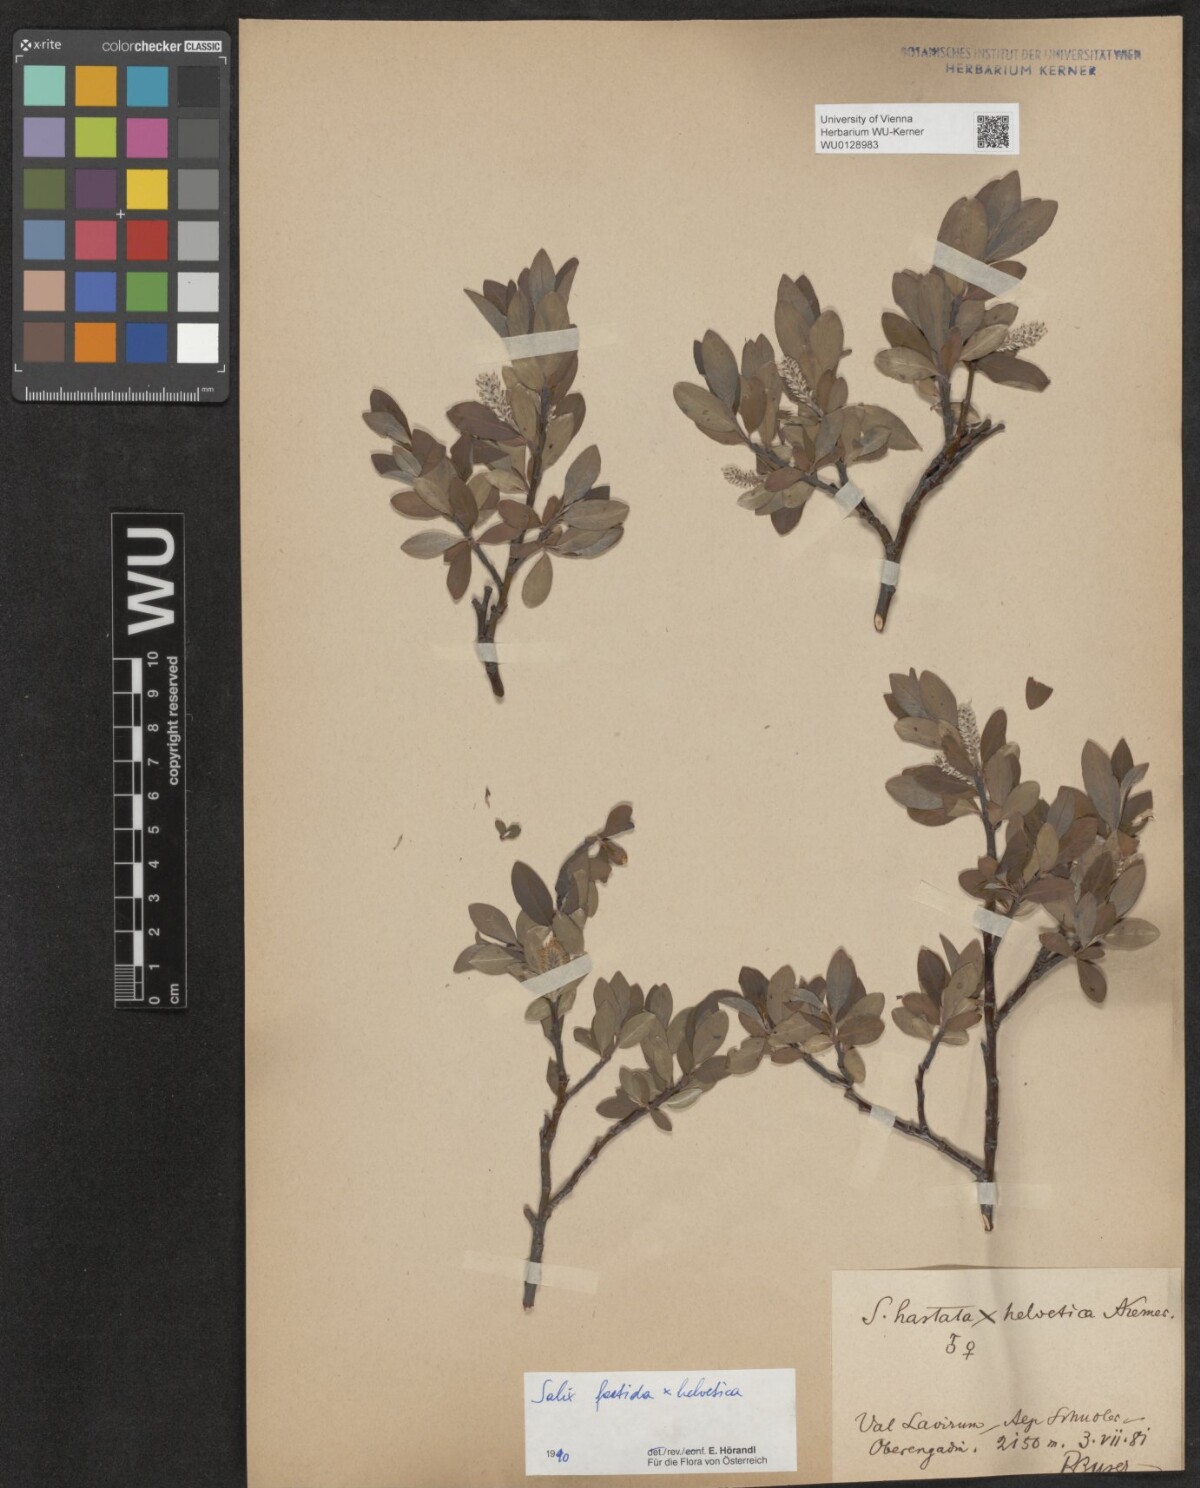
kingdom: Plantae
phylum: Tracheophyta
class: Magnoliopsida
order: Malpighiales
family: Salicaceae
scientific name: Salicaceae
